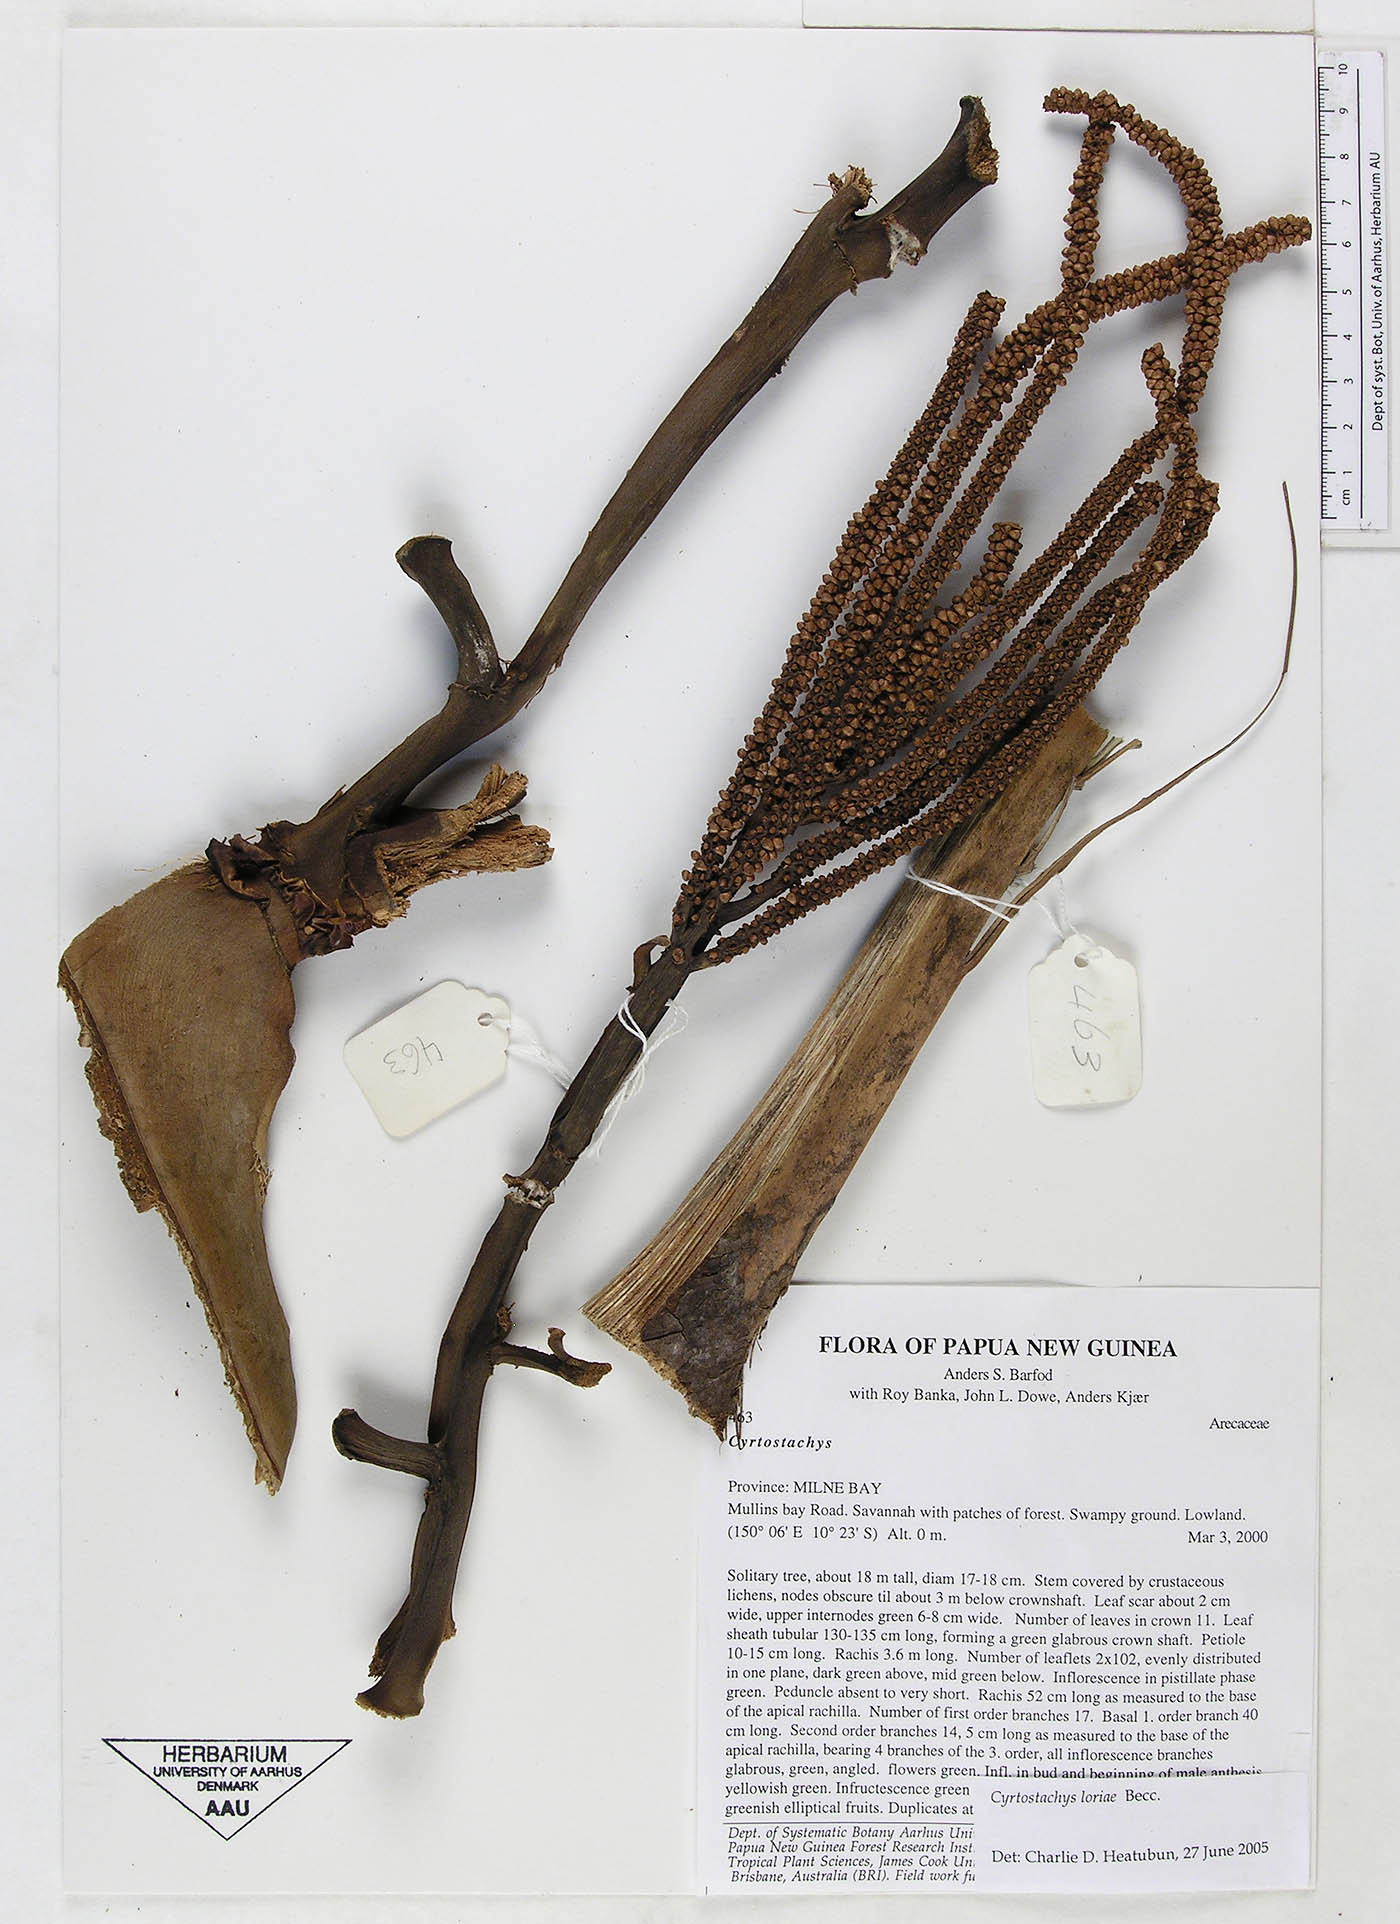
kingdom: Plantae
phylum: Tracheophyta
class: Liliopsida
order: Arecales
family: Arecaceae
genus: Cyrtostachys
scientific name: Cyrtostachys loriae
